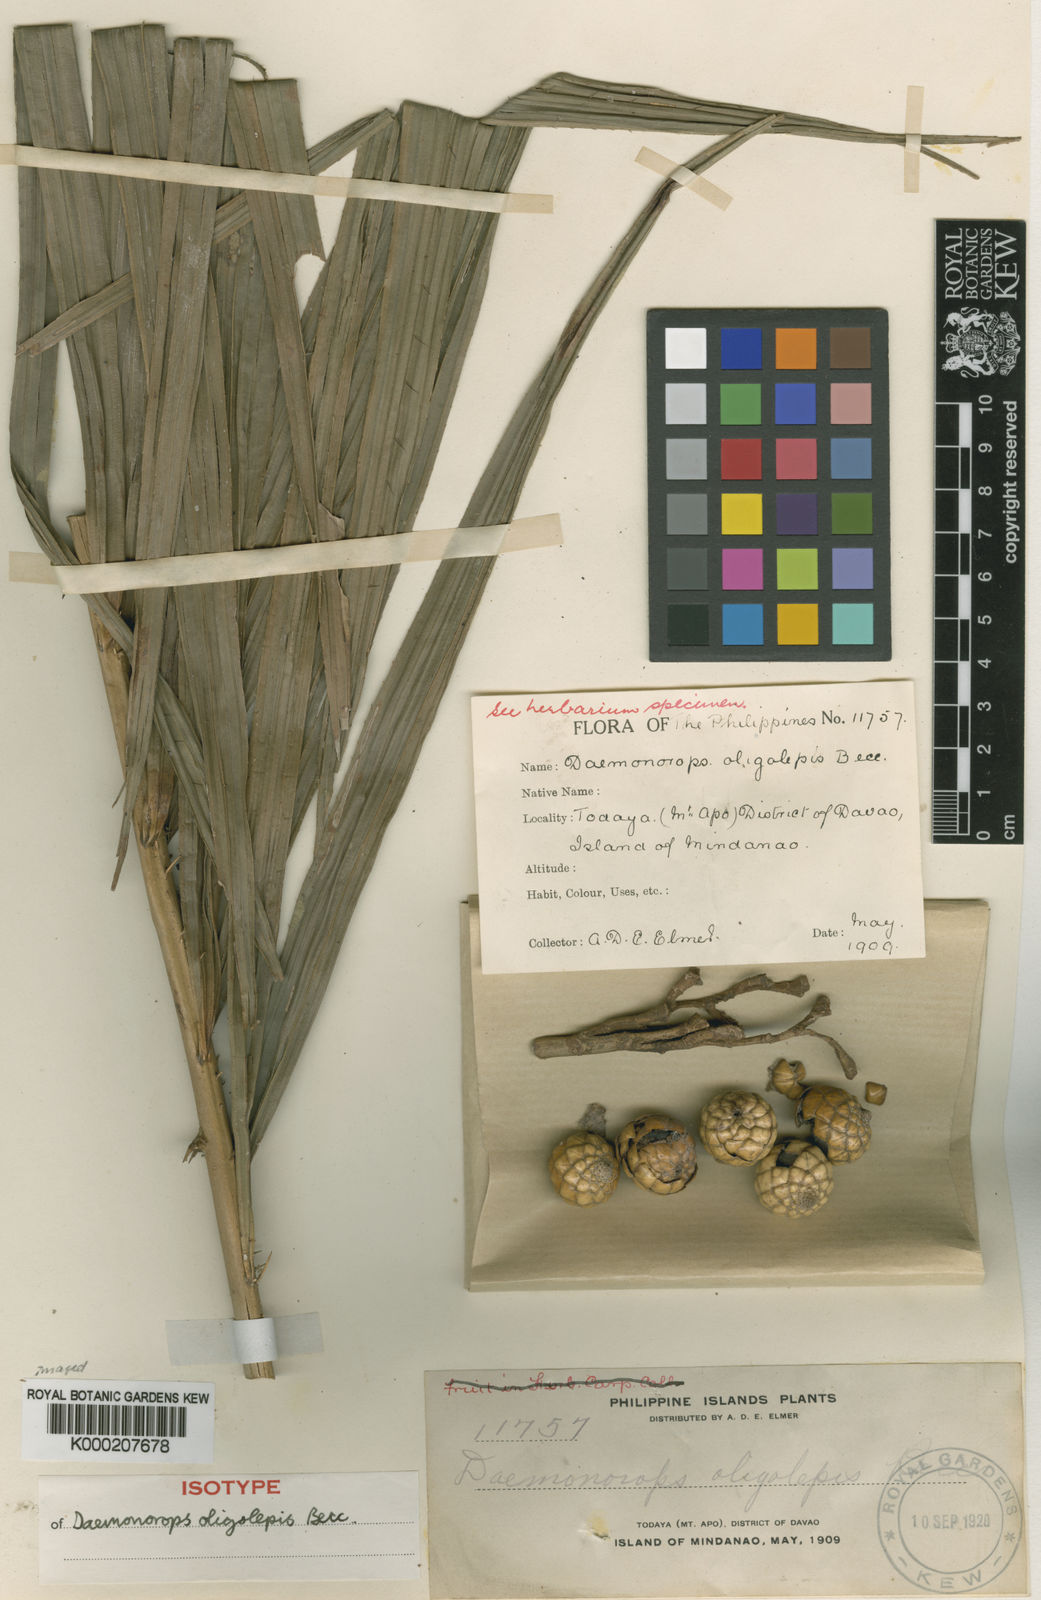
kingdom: Plantae
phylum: Tracheophyta
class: Liliopsida
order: Arecales
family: Arecaceae
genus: Calamus
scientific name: Calamus loherianus
